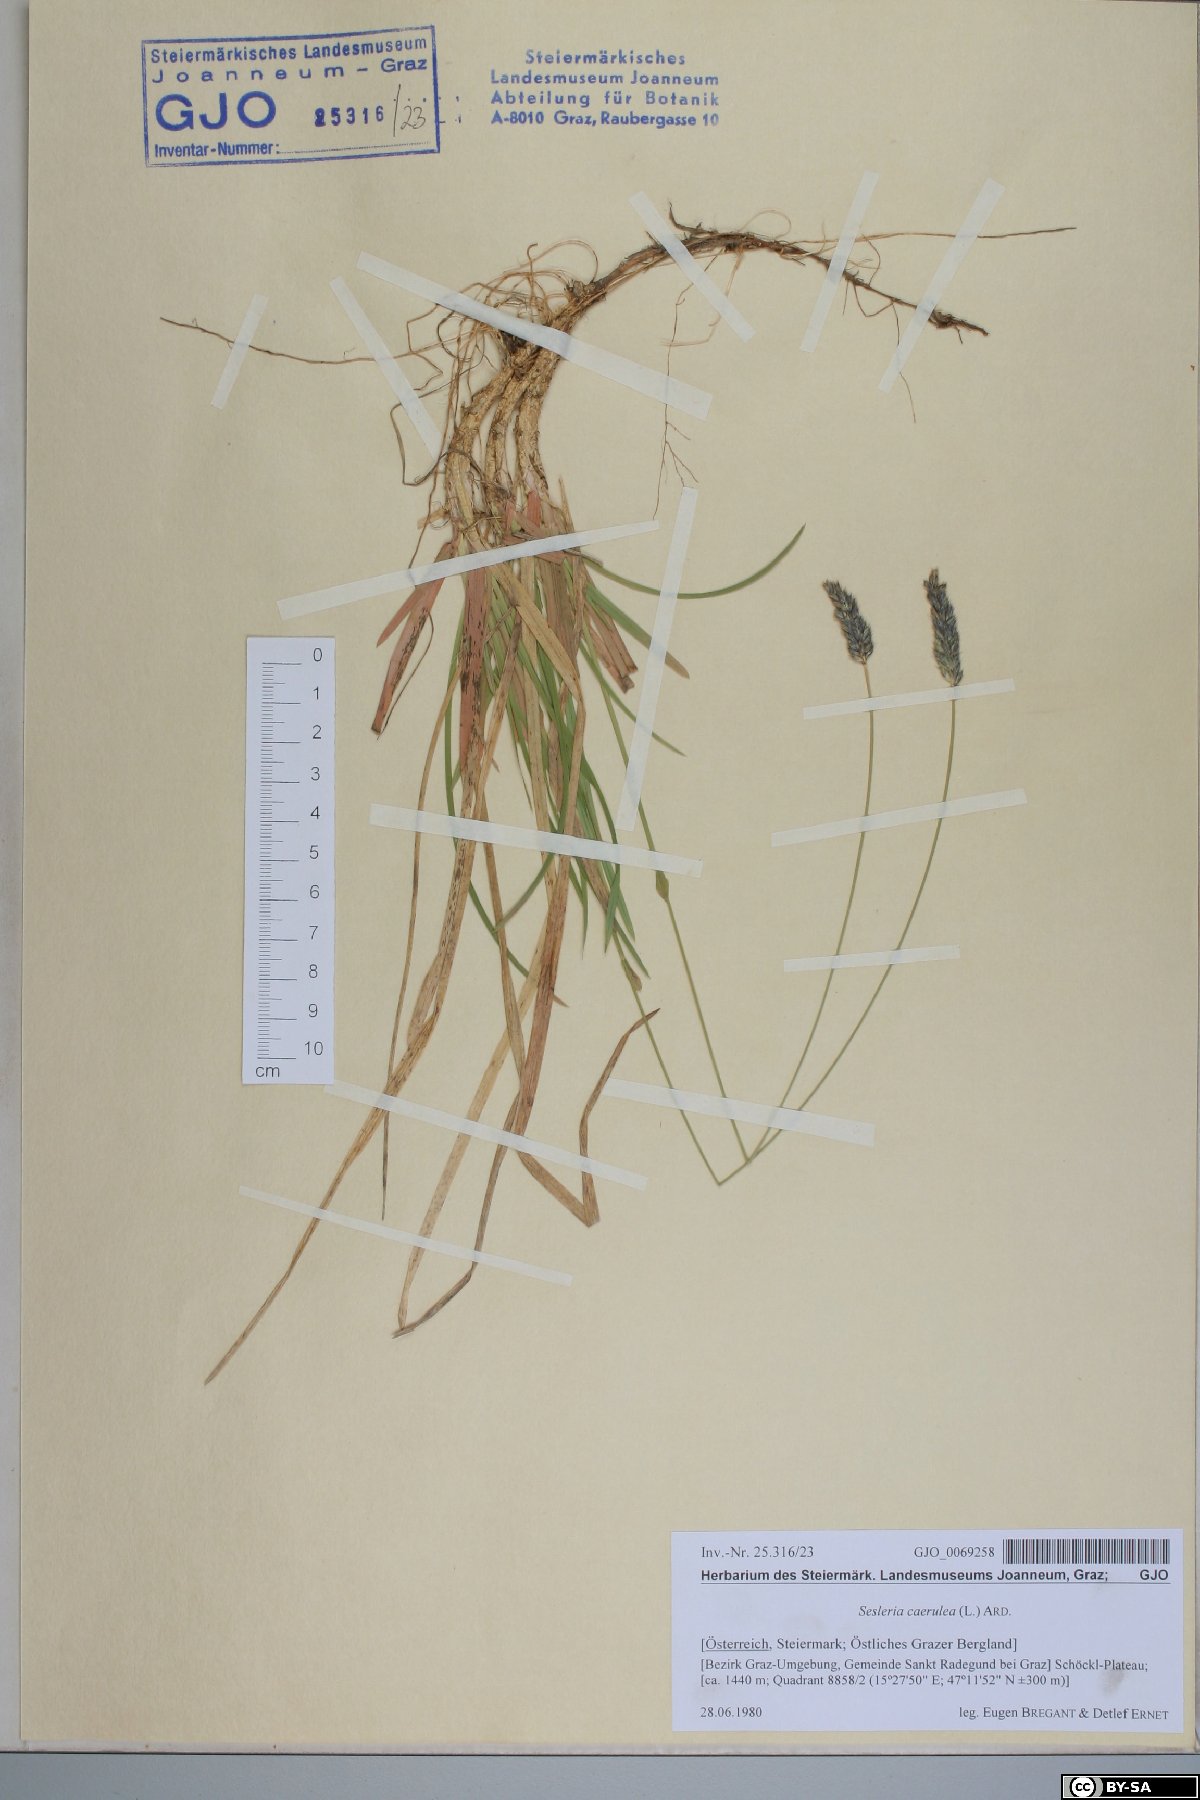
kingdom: Plantae
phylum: Tracheophyta
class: Liliopsida
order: Poales
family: Poaceae
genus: Sesleria
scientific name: Sesleria caerulea
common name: Blue moor-grass
